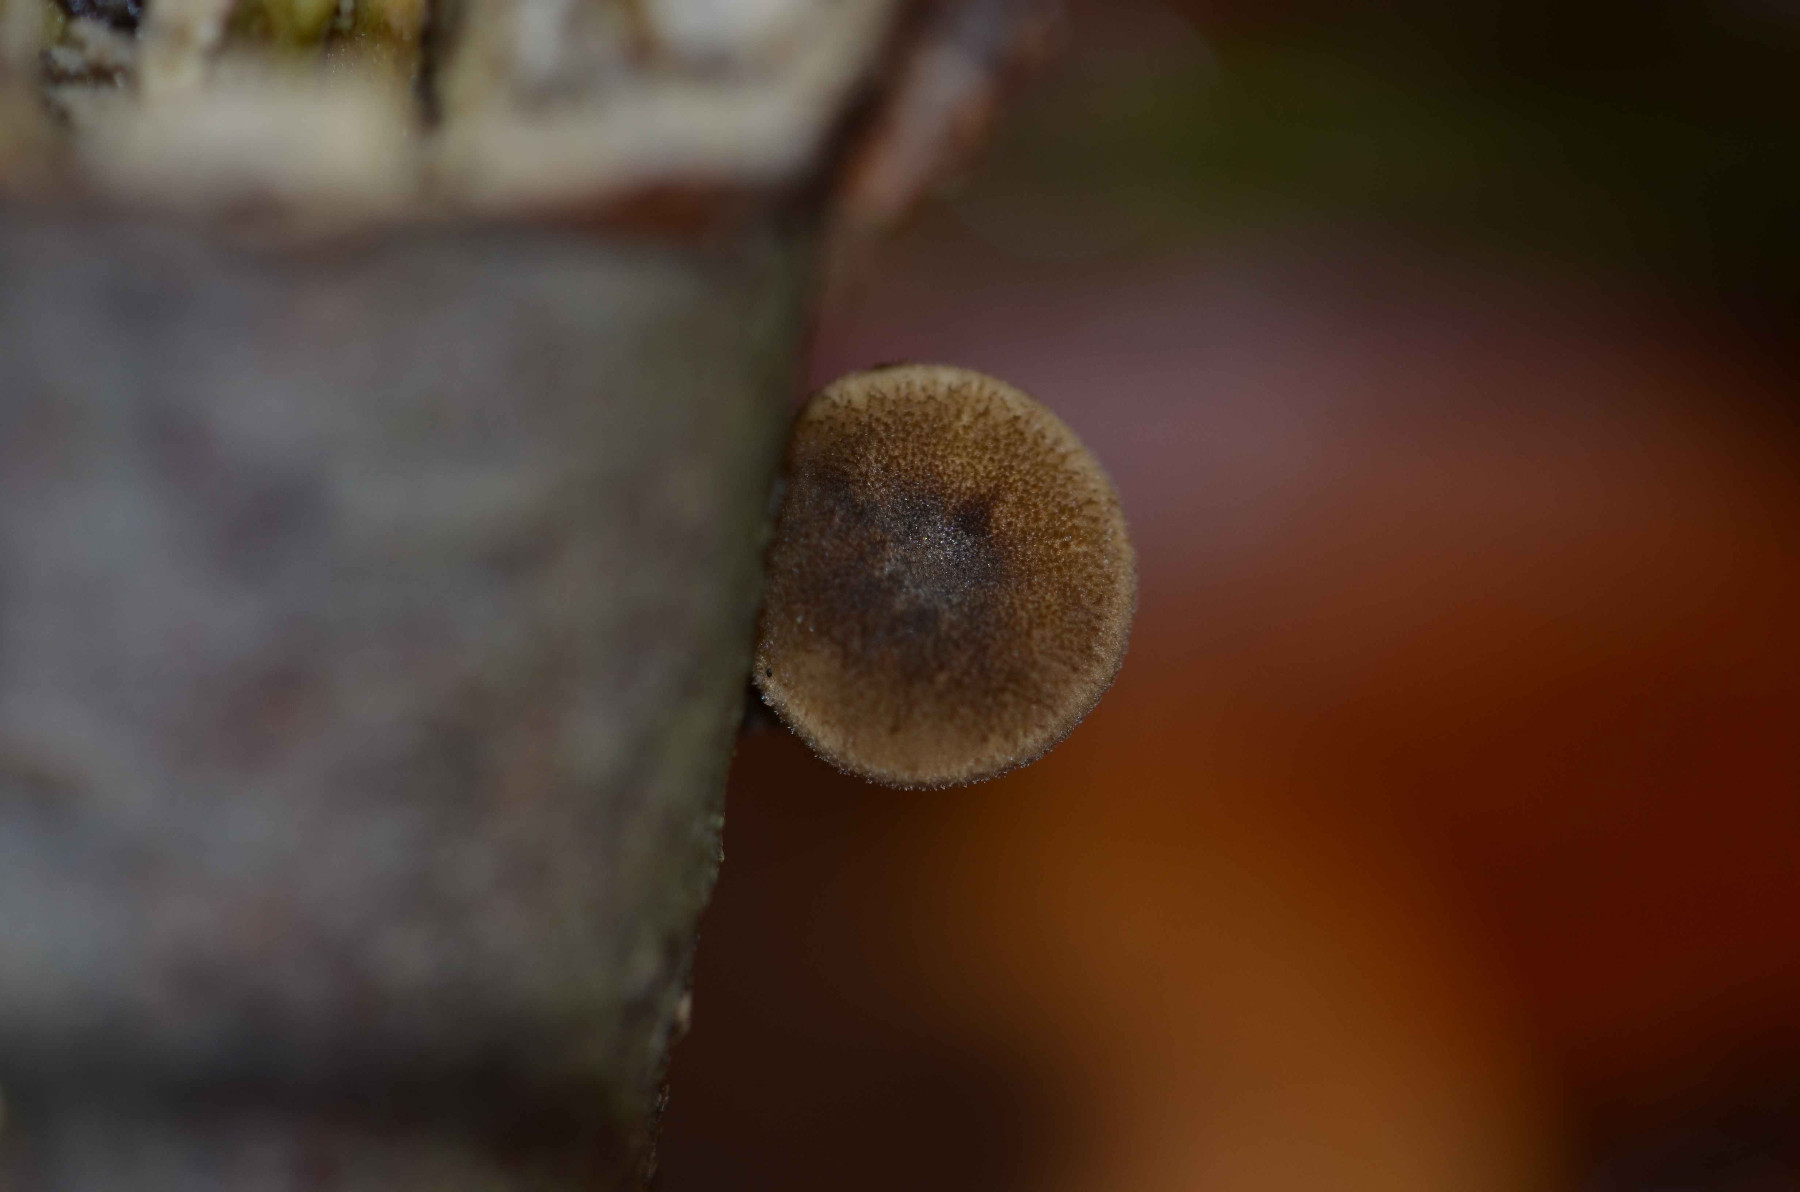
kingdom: Fungi
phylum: Basidiomycota
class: Agaricomycetes
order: Polyporales
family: Polyporaceae
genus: Lentinus
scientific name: Lentinus brumalis
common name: vinter-stilkporesvamp
